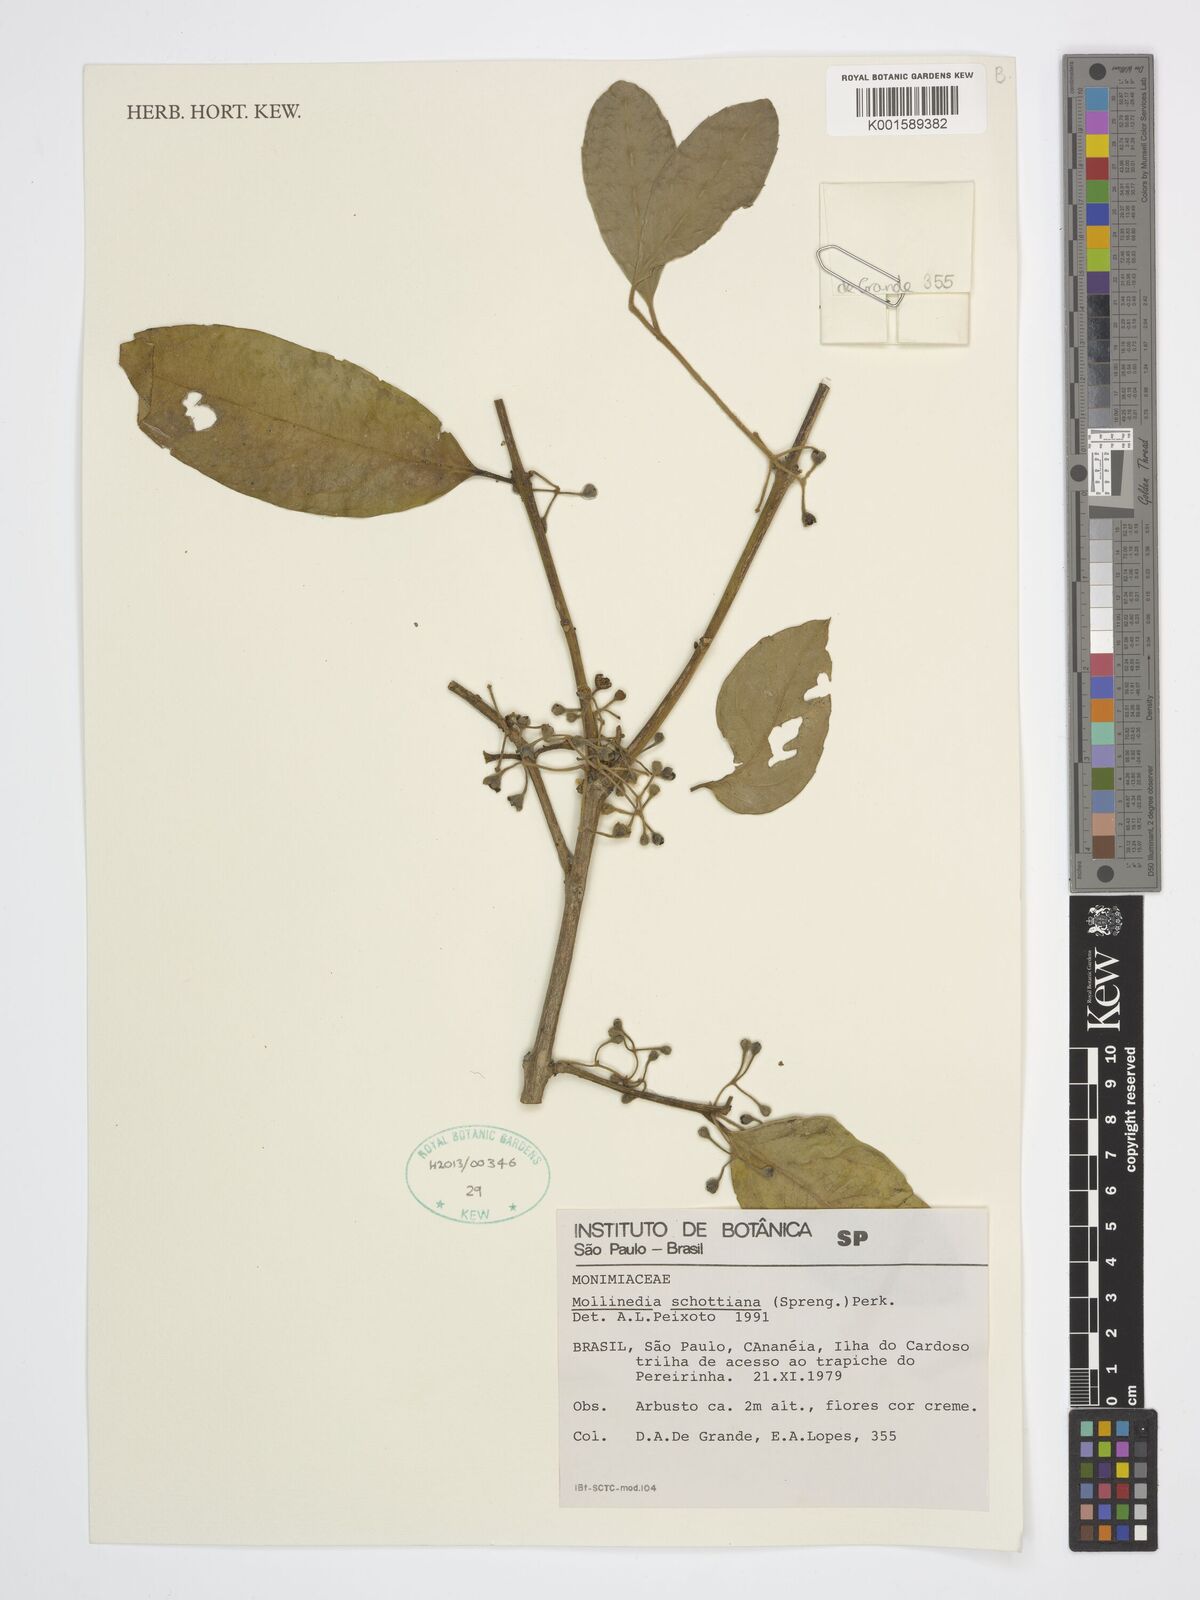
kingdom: Plantae
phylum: Tracheophyta
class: Magnoliopsida
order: Laurales
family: Monimiaceae
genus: Mollinedia
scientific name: Mollinedia umbellata
